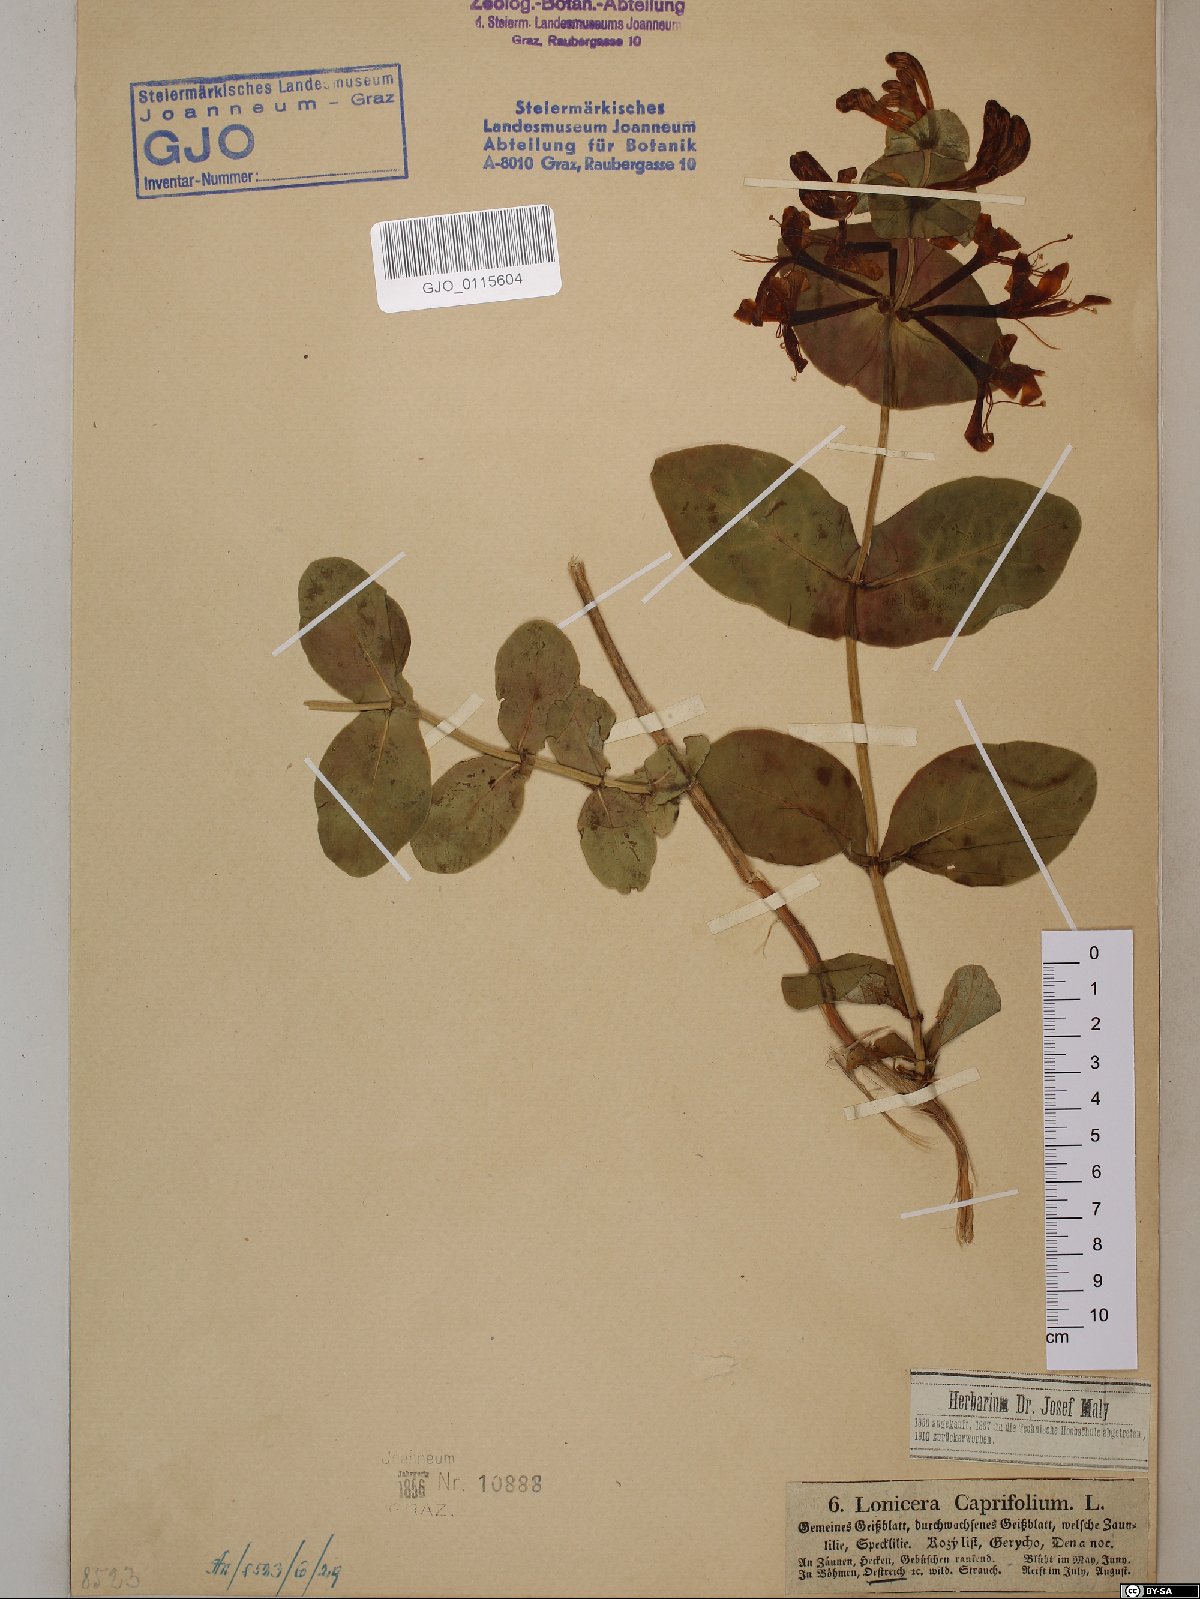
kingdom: Plantae
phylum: Tracheophyta
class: Magnoliopsida
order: Dipsacales
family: Caprifoliaceae
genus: Lonicera
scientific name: Lonicera caprifolium
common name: Perfoliate honeysuckle
